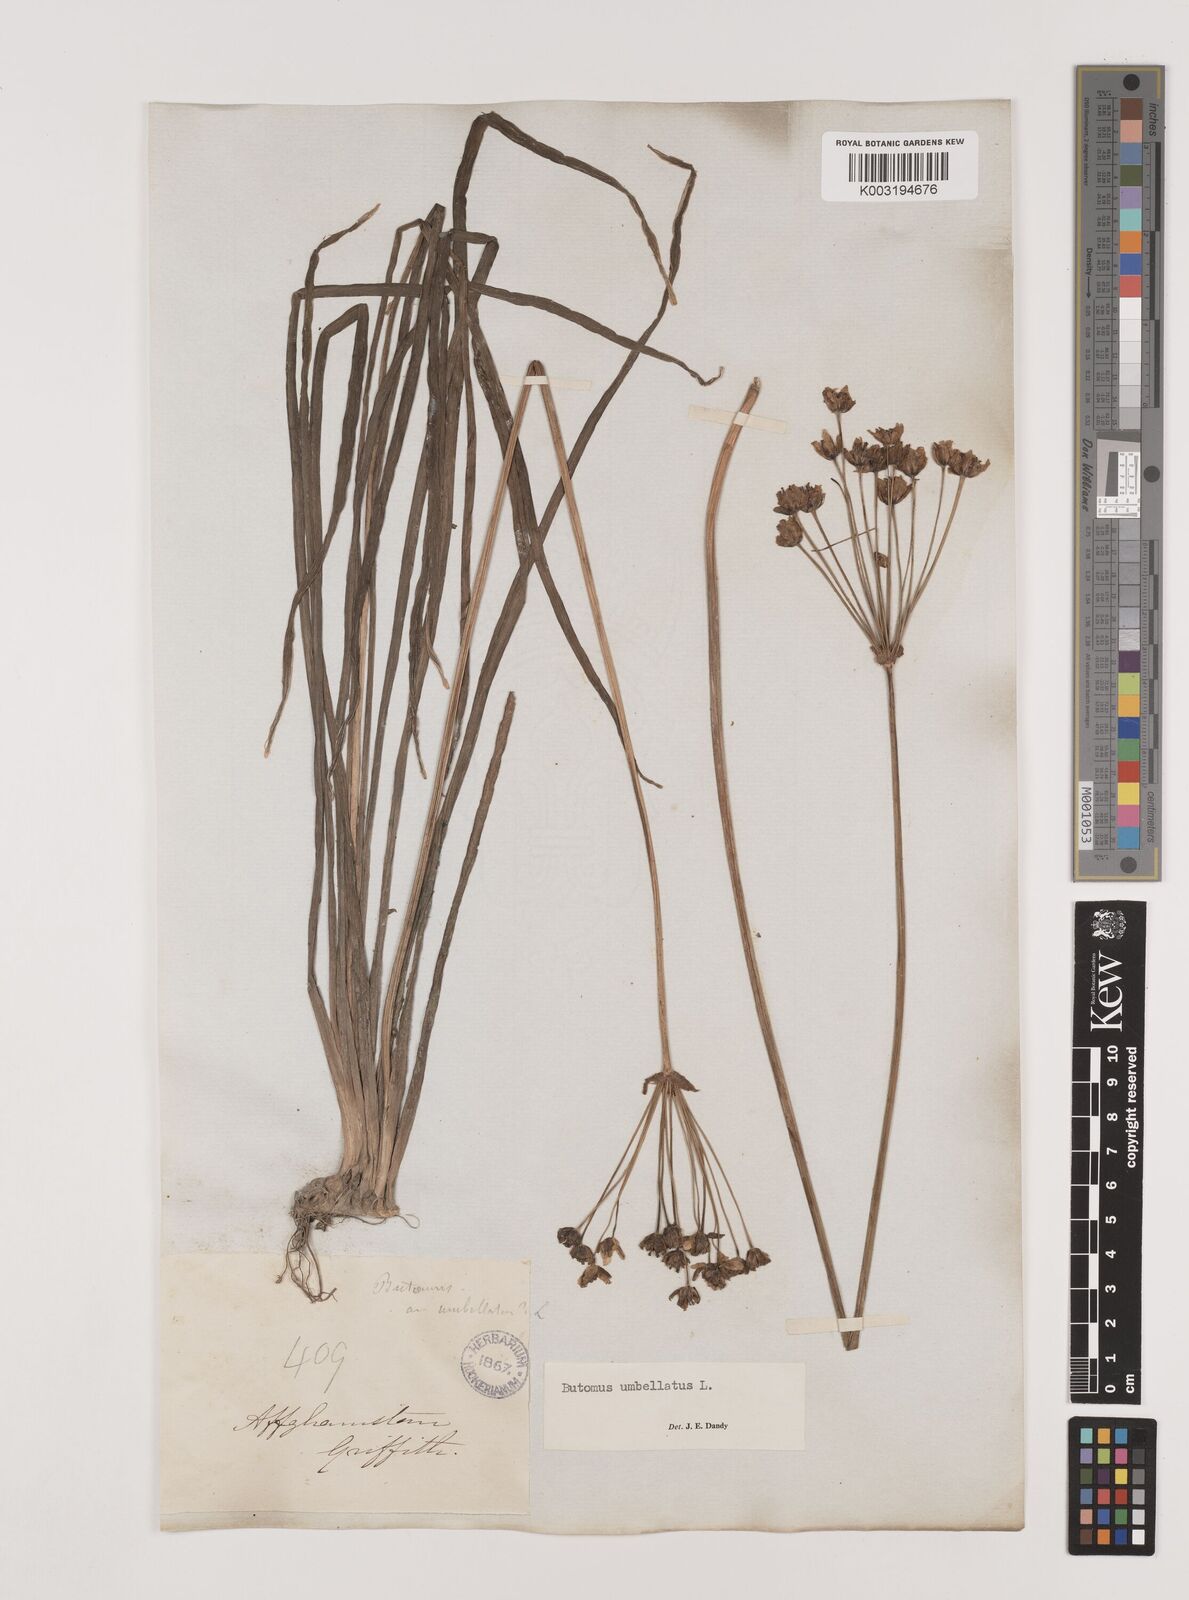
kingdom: Plantae
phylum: Tracheophyta
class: Liliopsida
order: Alismatales
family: Butomaceae
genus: Butomus
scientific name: Butomus umbellatus
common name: Flowering-rush
